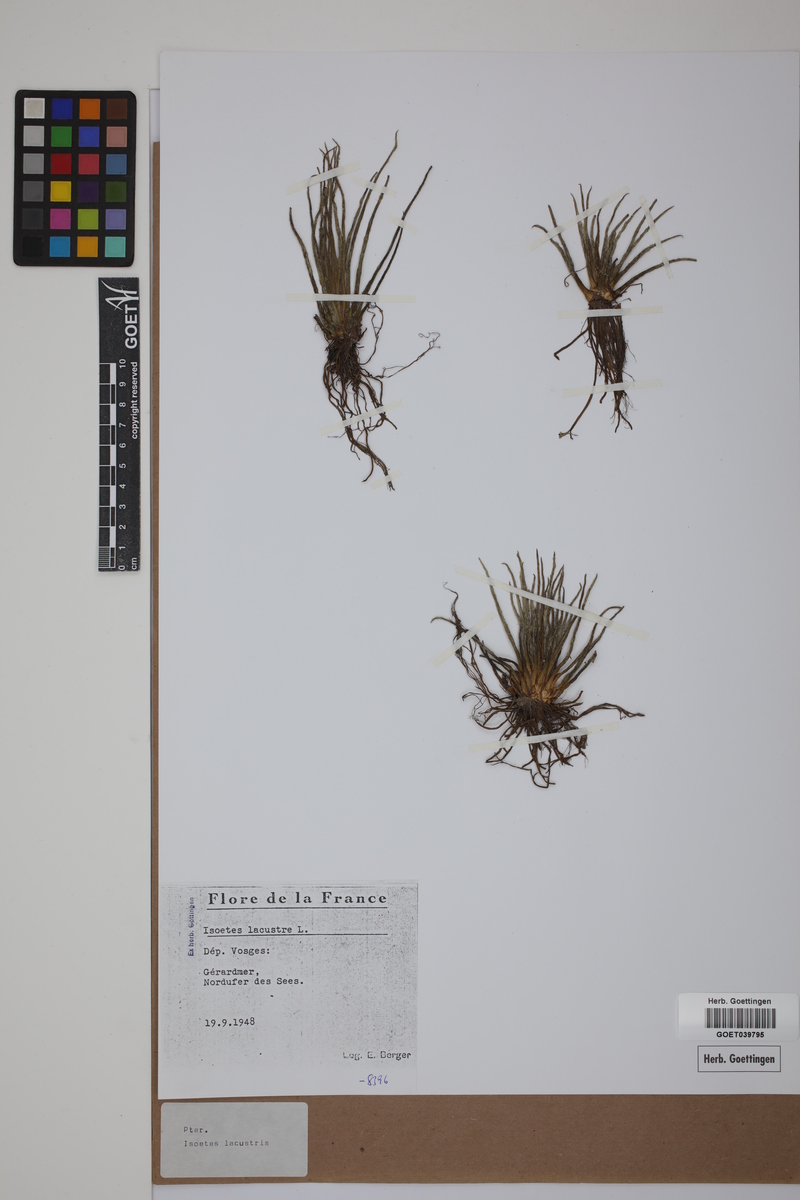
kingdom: Plantae
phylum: Tracheophyta
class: Lycopodiopsida
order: Isoetales
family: Isoetaceae
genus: Isoetes
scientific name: Isoetes lacustris
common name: Common quillwort
